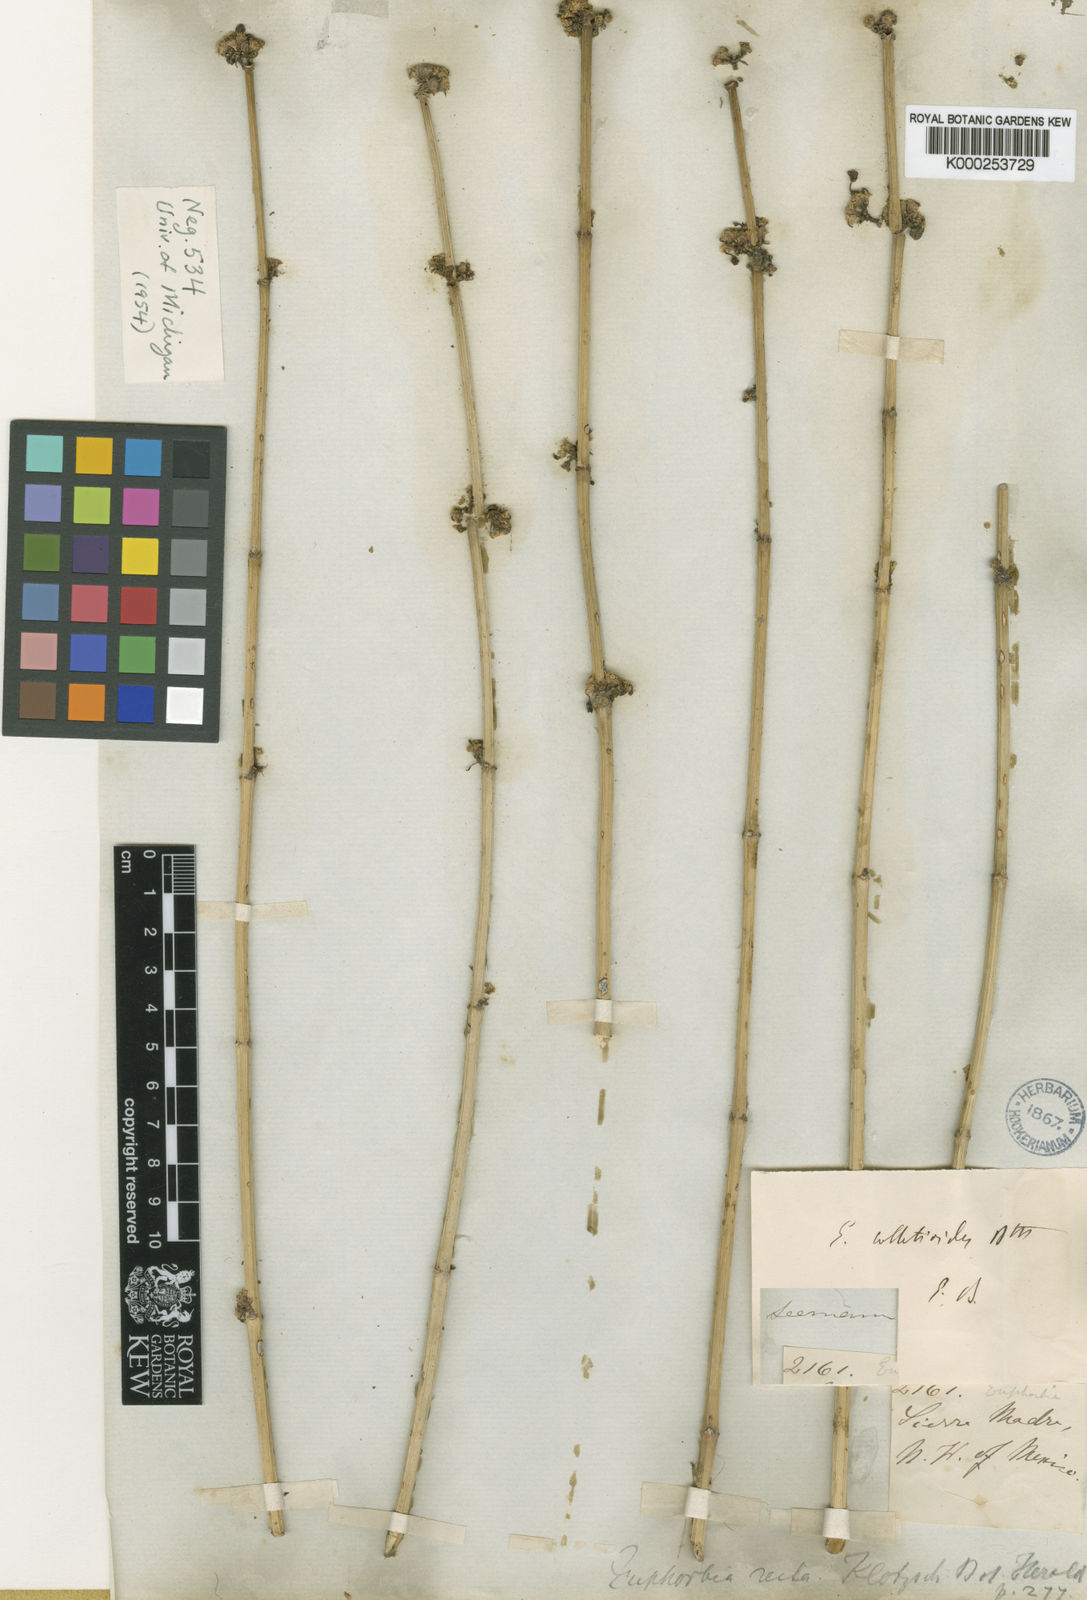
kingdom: Plantae
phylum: Tracheophyta
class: Magnoliopsida
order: Malpighiales
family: Euphorbiaceae
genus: Euphorbia
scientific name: Euphorbia colletioides
